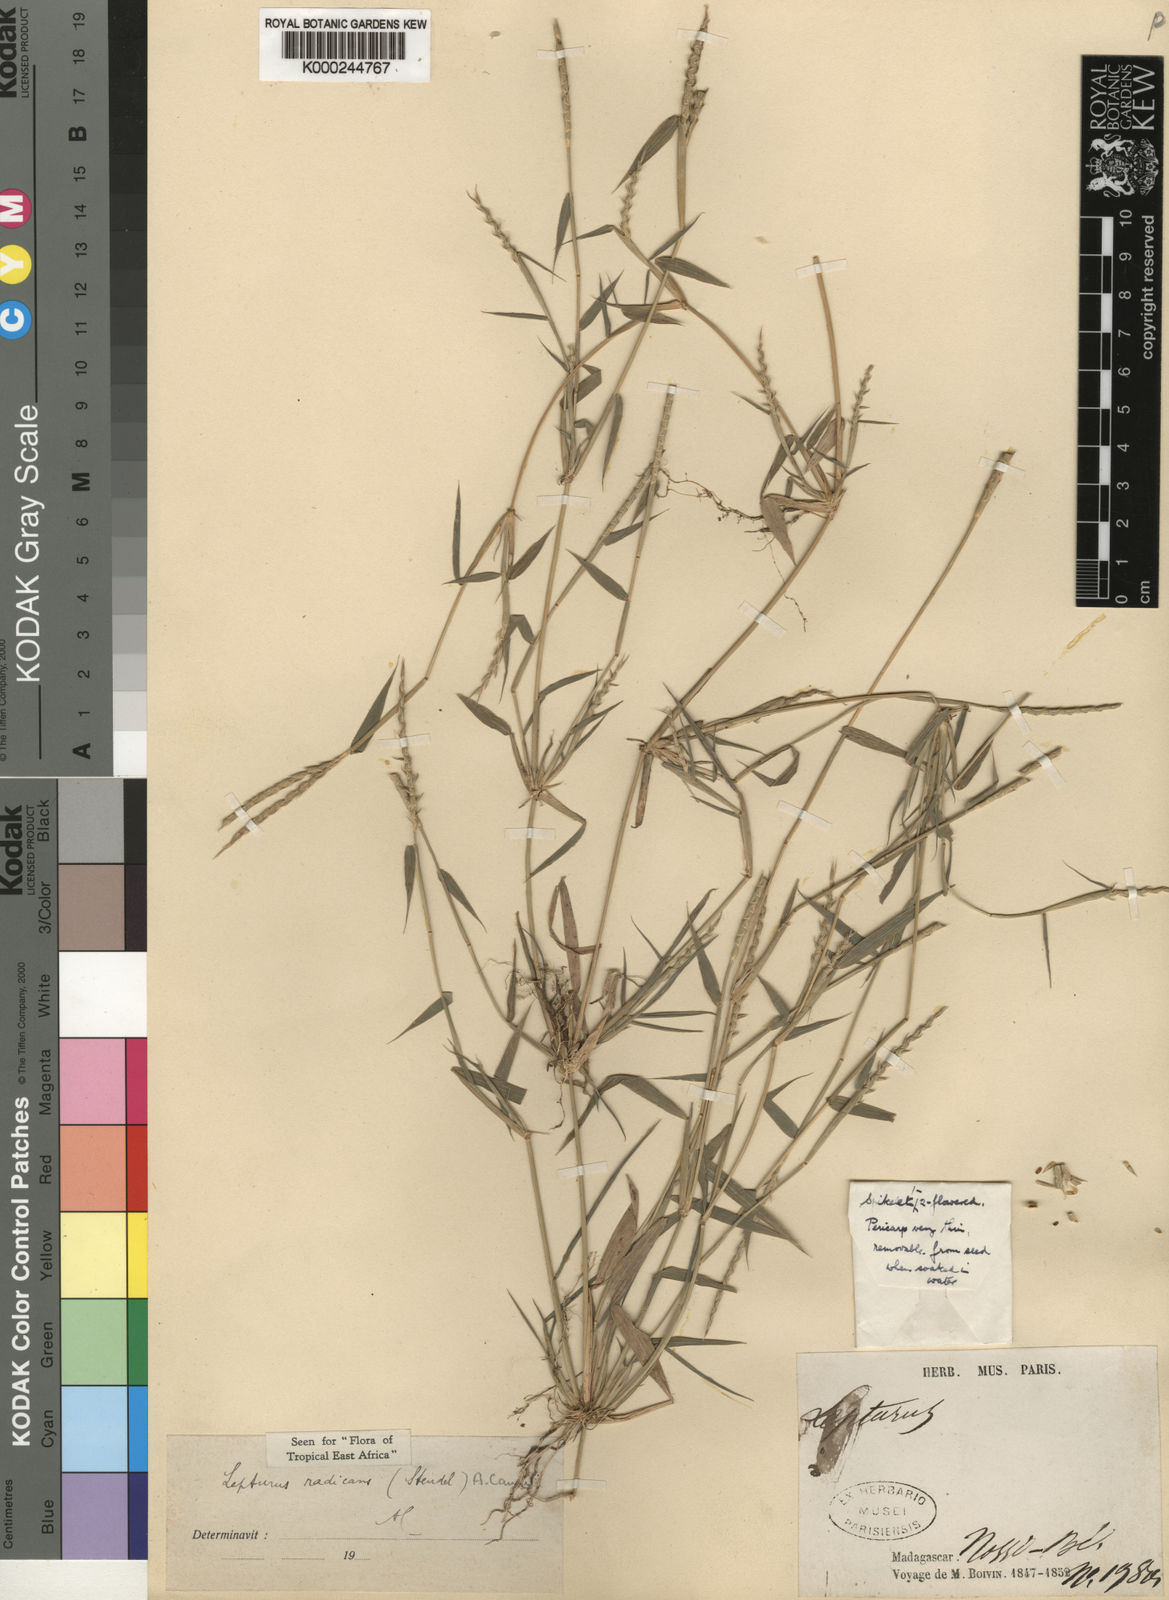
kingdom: Plantae
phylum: Tracheophyta
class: Liliopsida
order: Poales
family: Poaceae
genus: Lepturus
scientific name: Lepturus radicans
